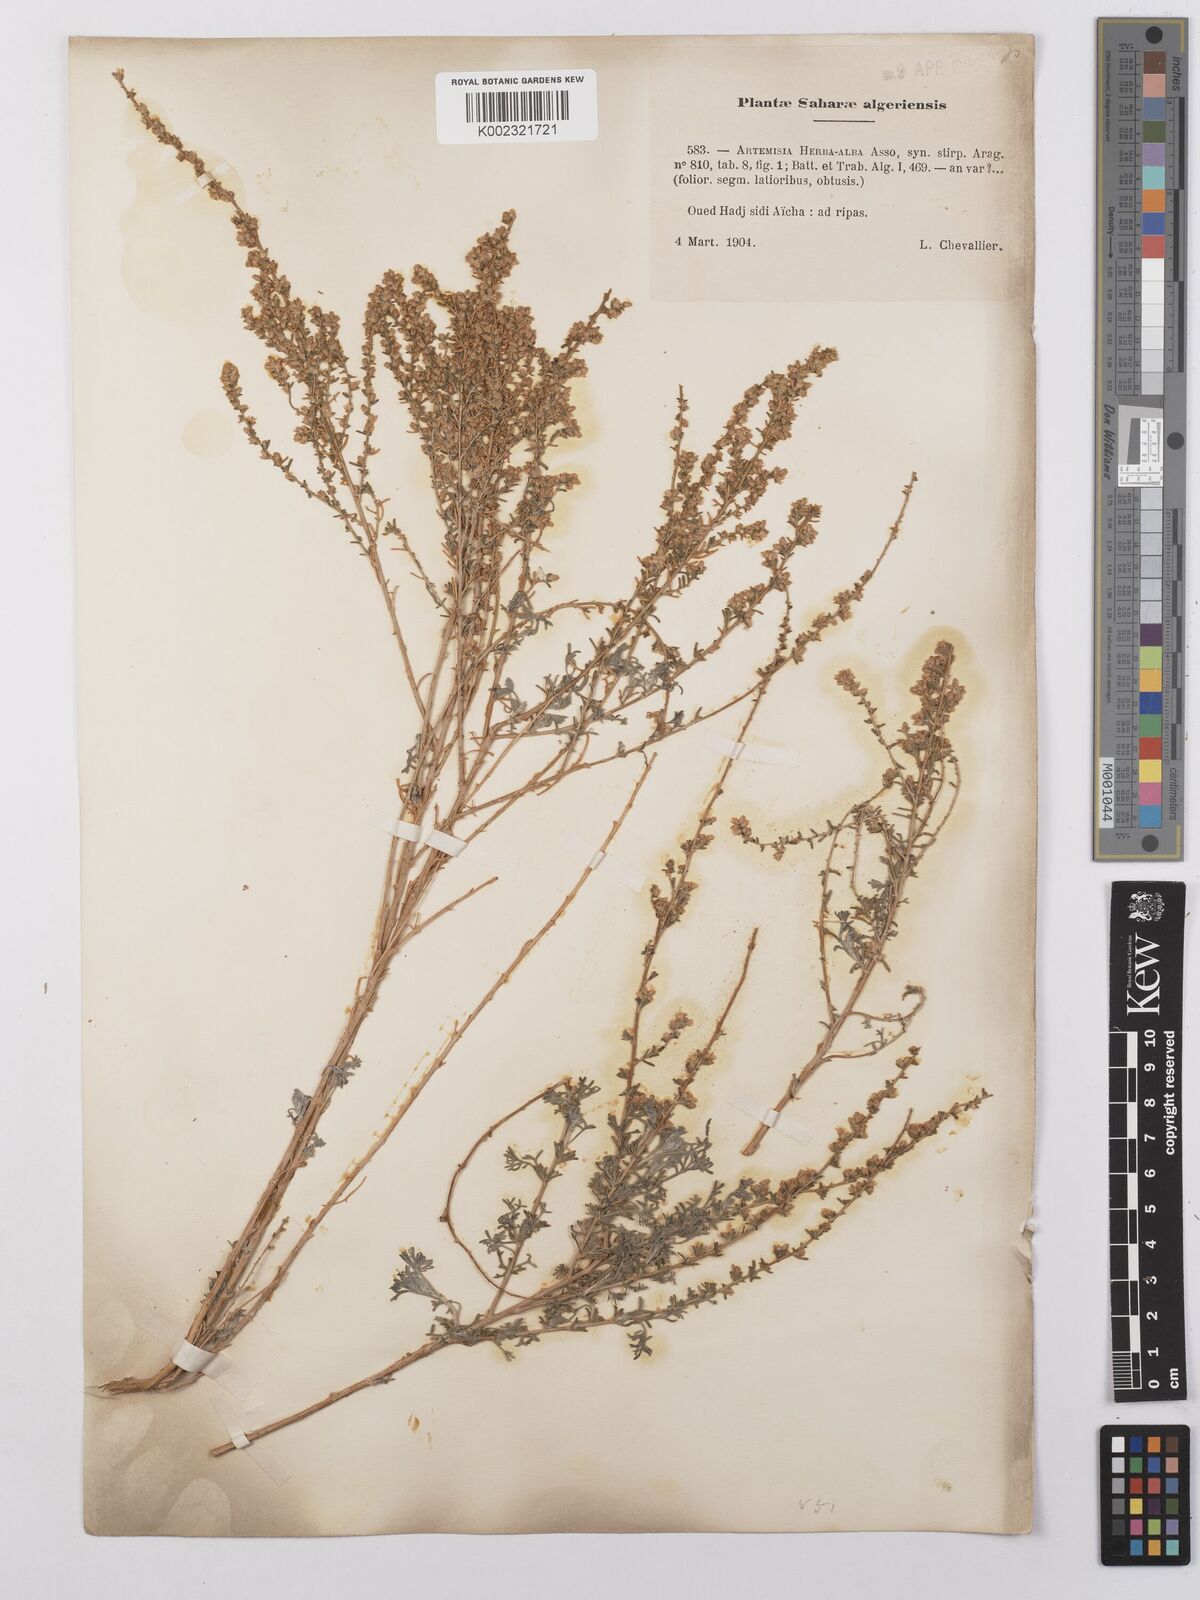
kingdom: Plantae
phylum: Tracheophyta
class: Magnoliopsida
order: Asterales
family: Asteraceae
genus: Artemisia
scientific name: Artemisia herba-alba
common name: White wormwood
